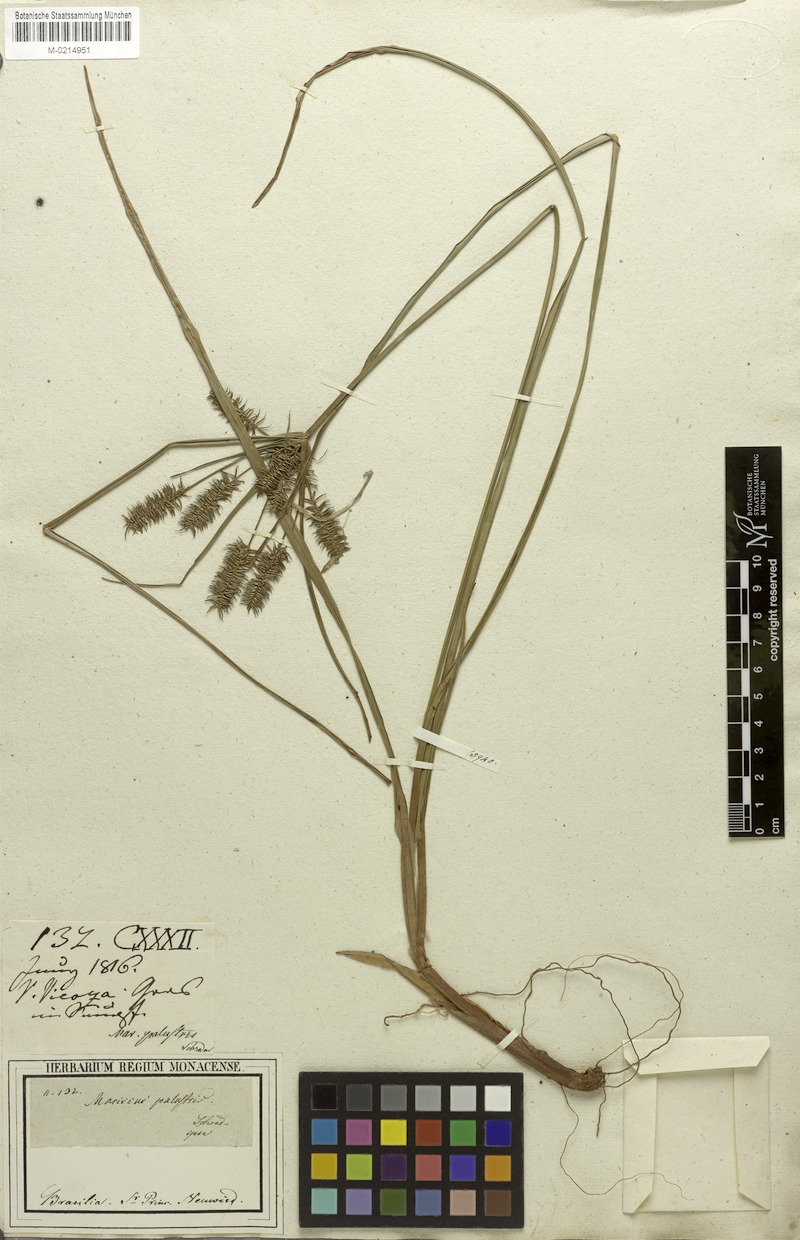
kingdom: Plantae
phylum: Tracheophyta
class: Liliopsida
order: Poales
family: Cyperaceae
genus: Cyperus
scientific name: Cyperus meyenianus
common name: Meyen's flatsedge
